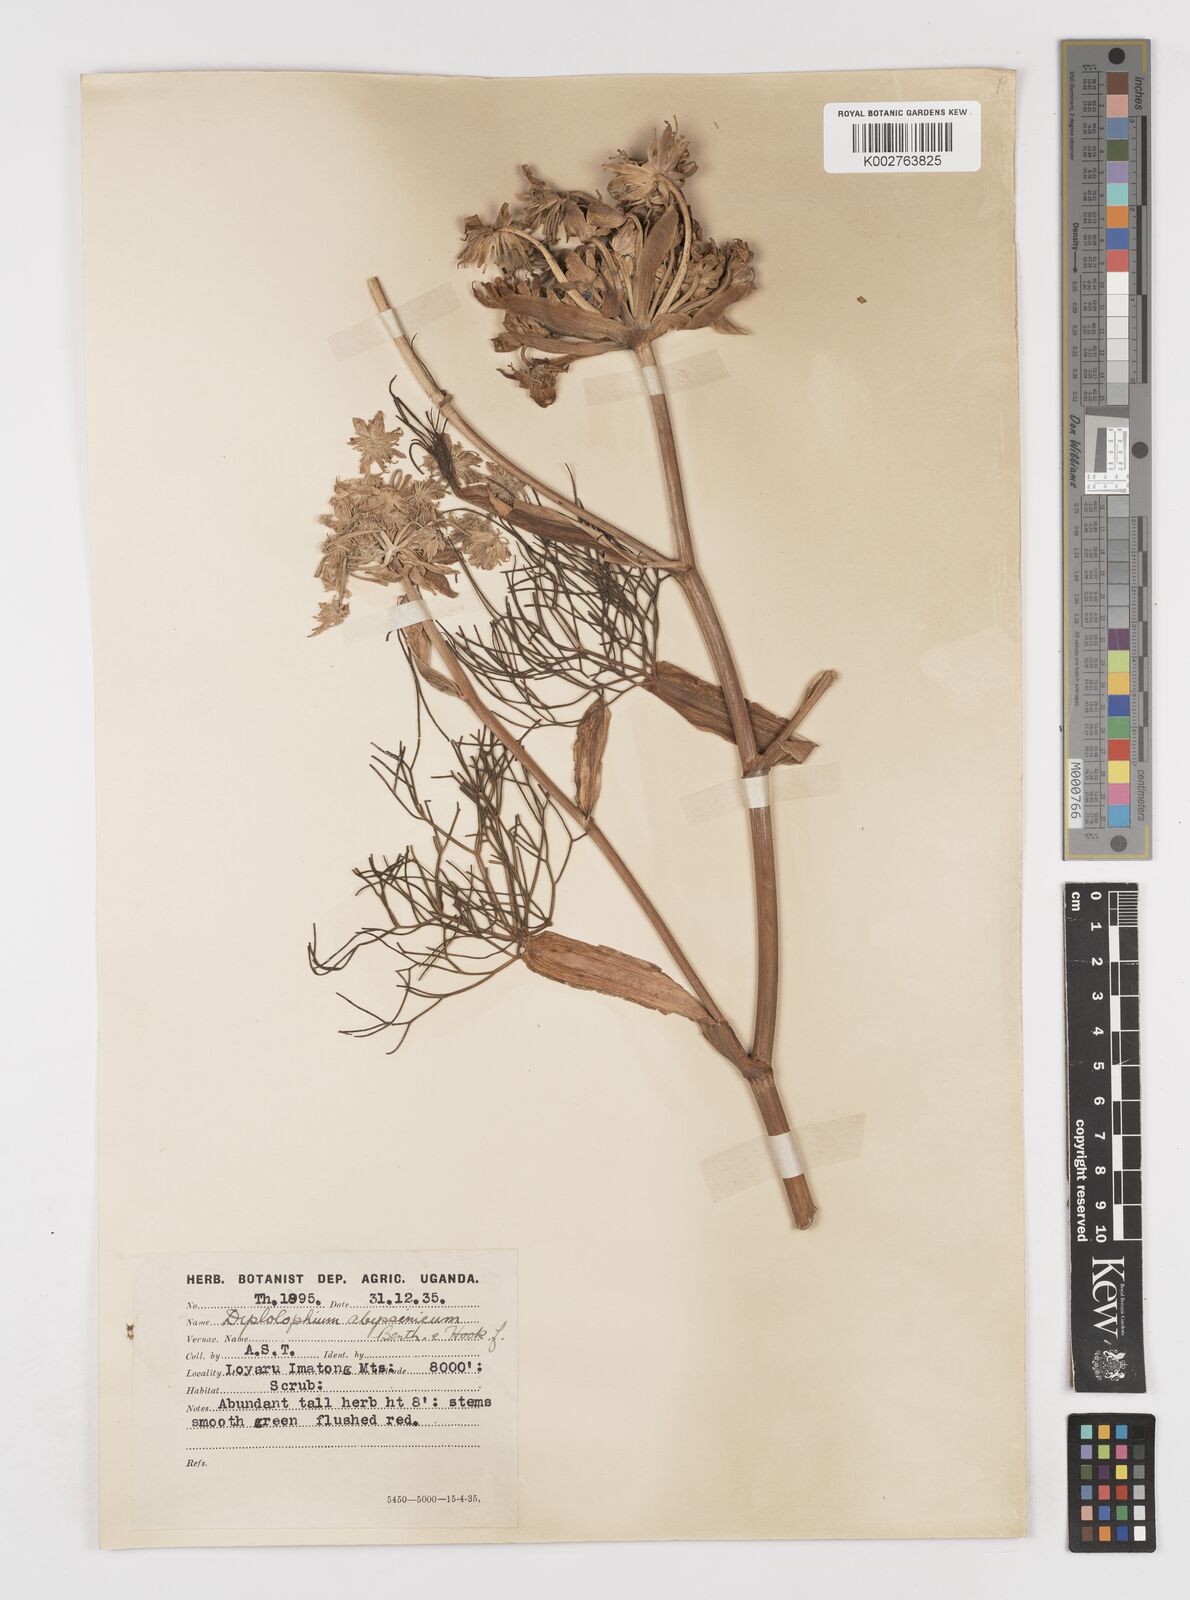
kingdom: Plantae
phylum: Tracheophyta
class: Magnoliopsida
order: Apiales
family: Apiaceae
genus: Diplolophium
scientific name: Diplolophium africanum
